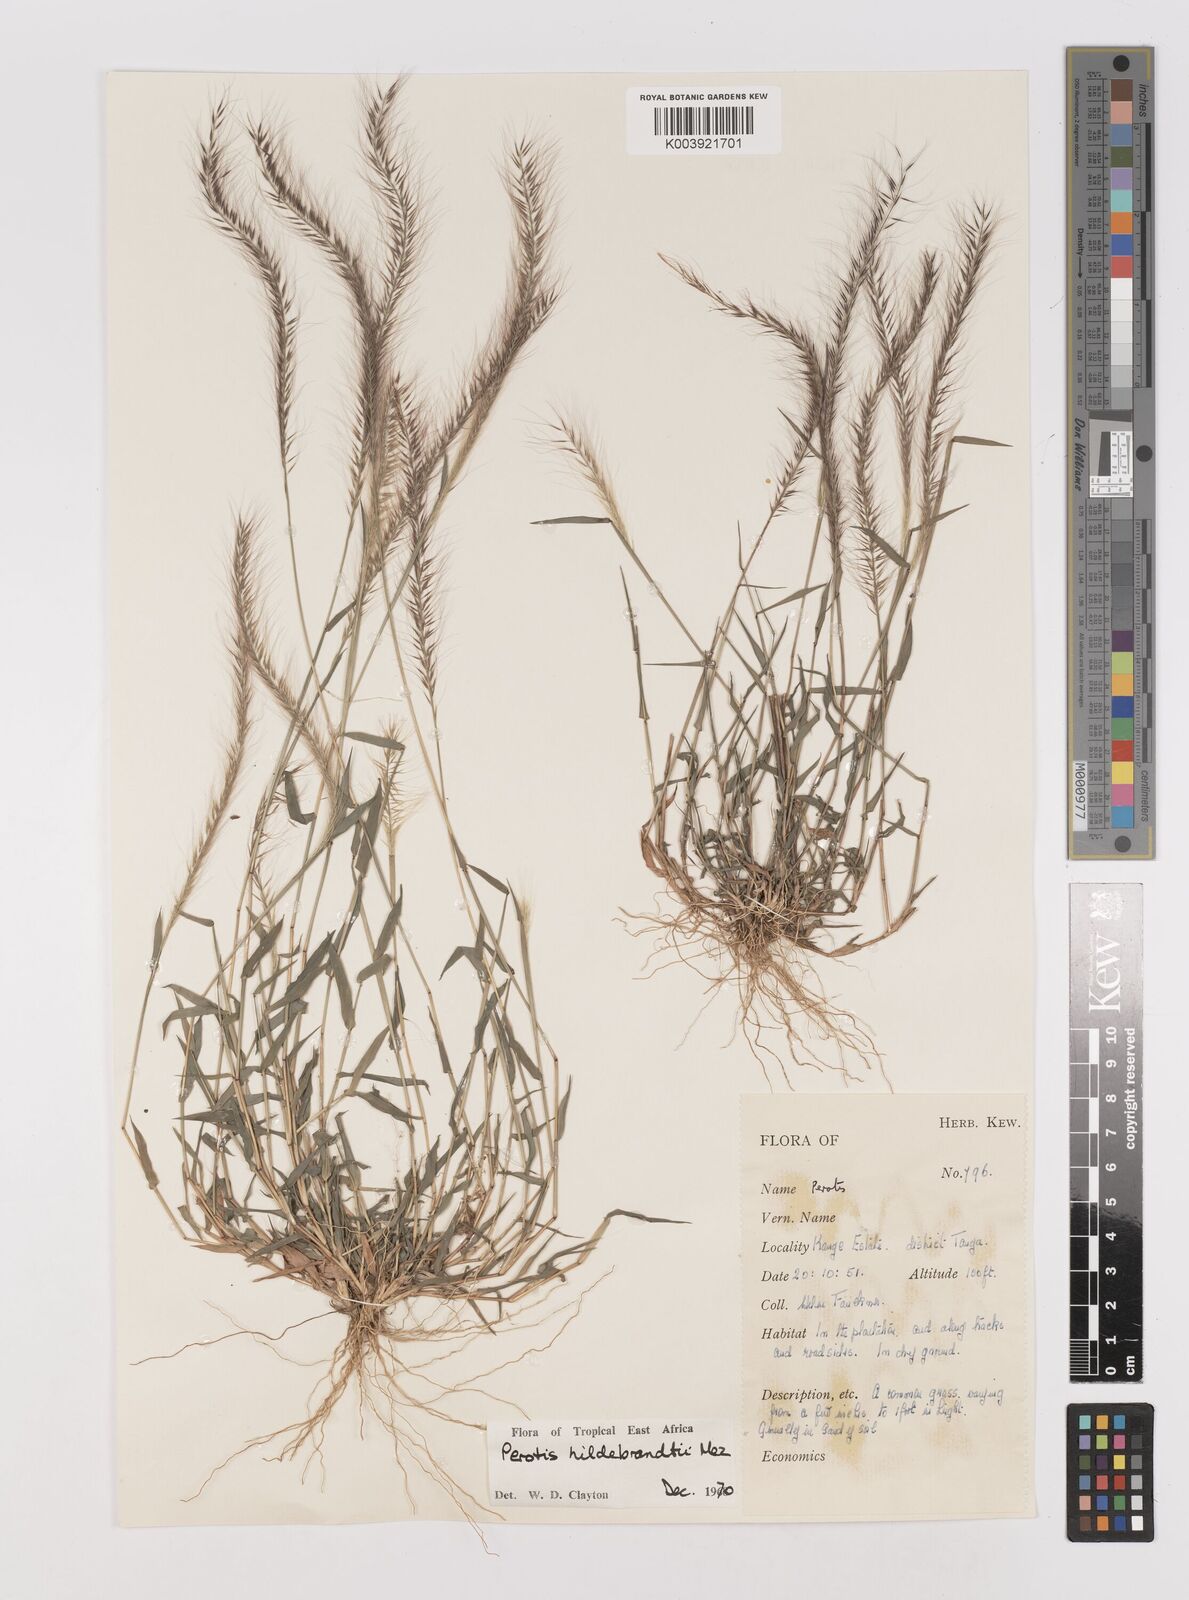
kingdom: Plantae
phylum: Tracheophyta
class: Liliopsida
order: Poales
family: Poaceae
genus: Perotis
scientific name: Perotis hildebrandtii
